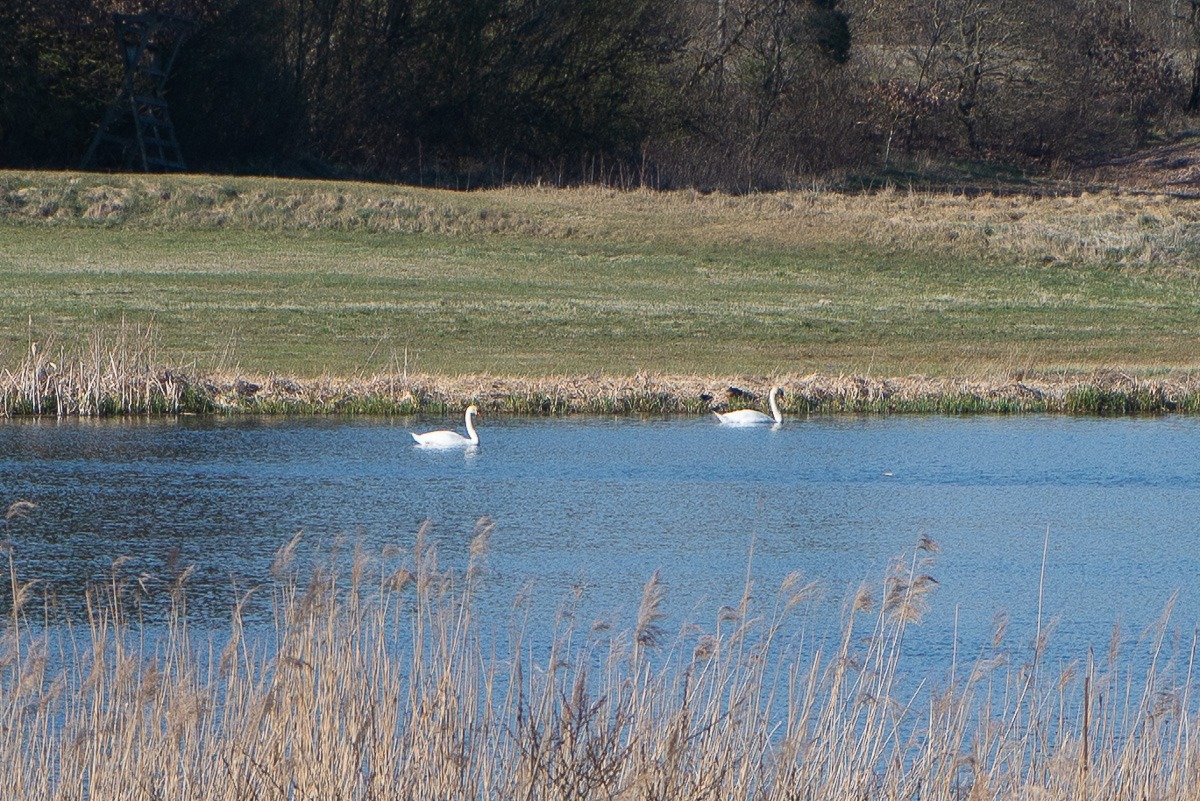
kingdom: Animalia
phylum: Chordata
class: Aves
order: Anseriformes
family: Anatidae
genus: Cygnus
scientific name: Cygnus olor
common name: Knopsvane
